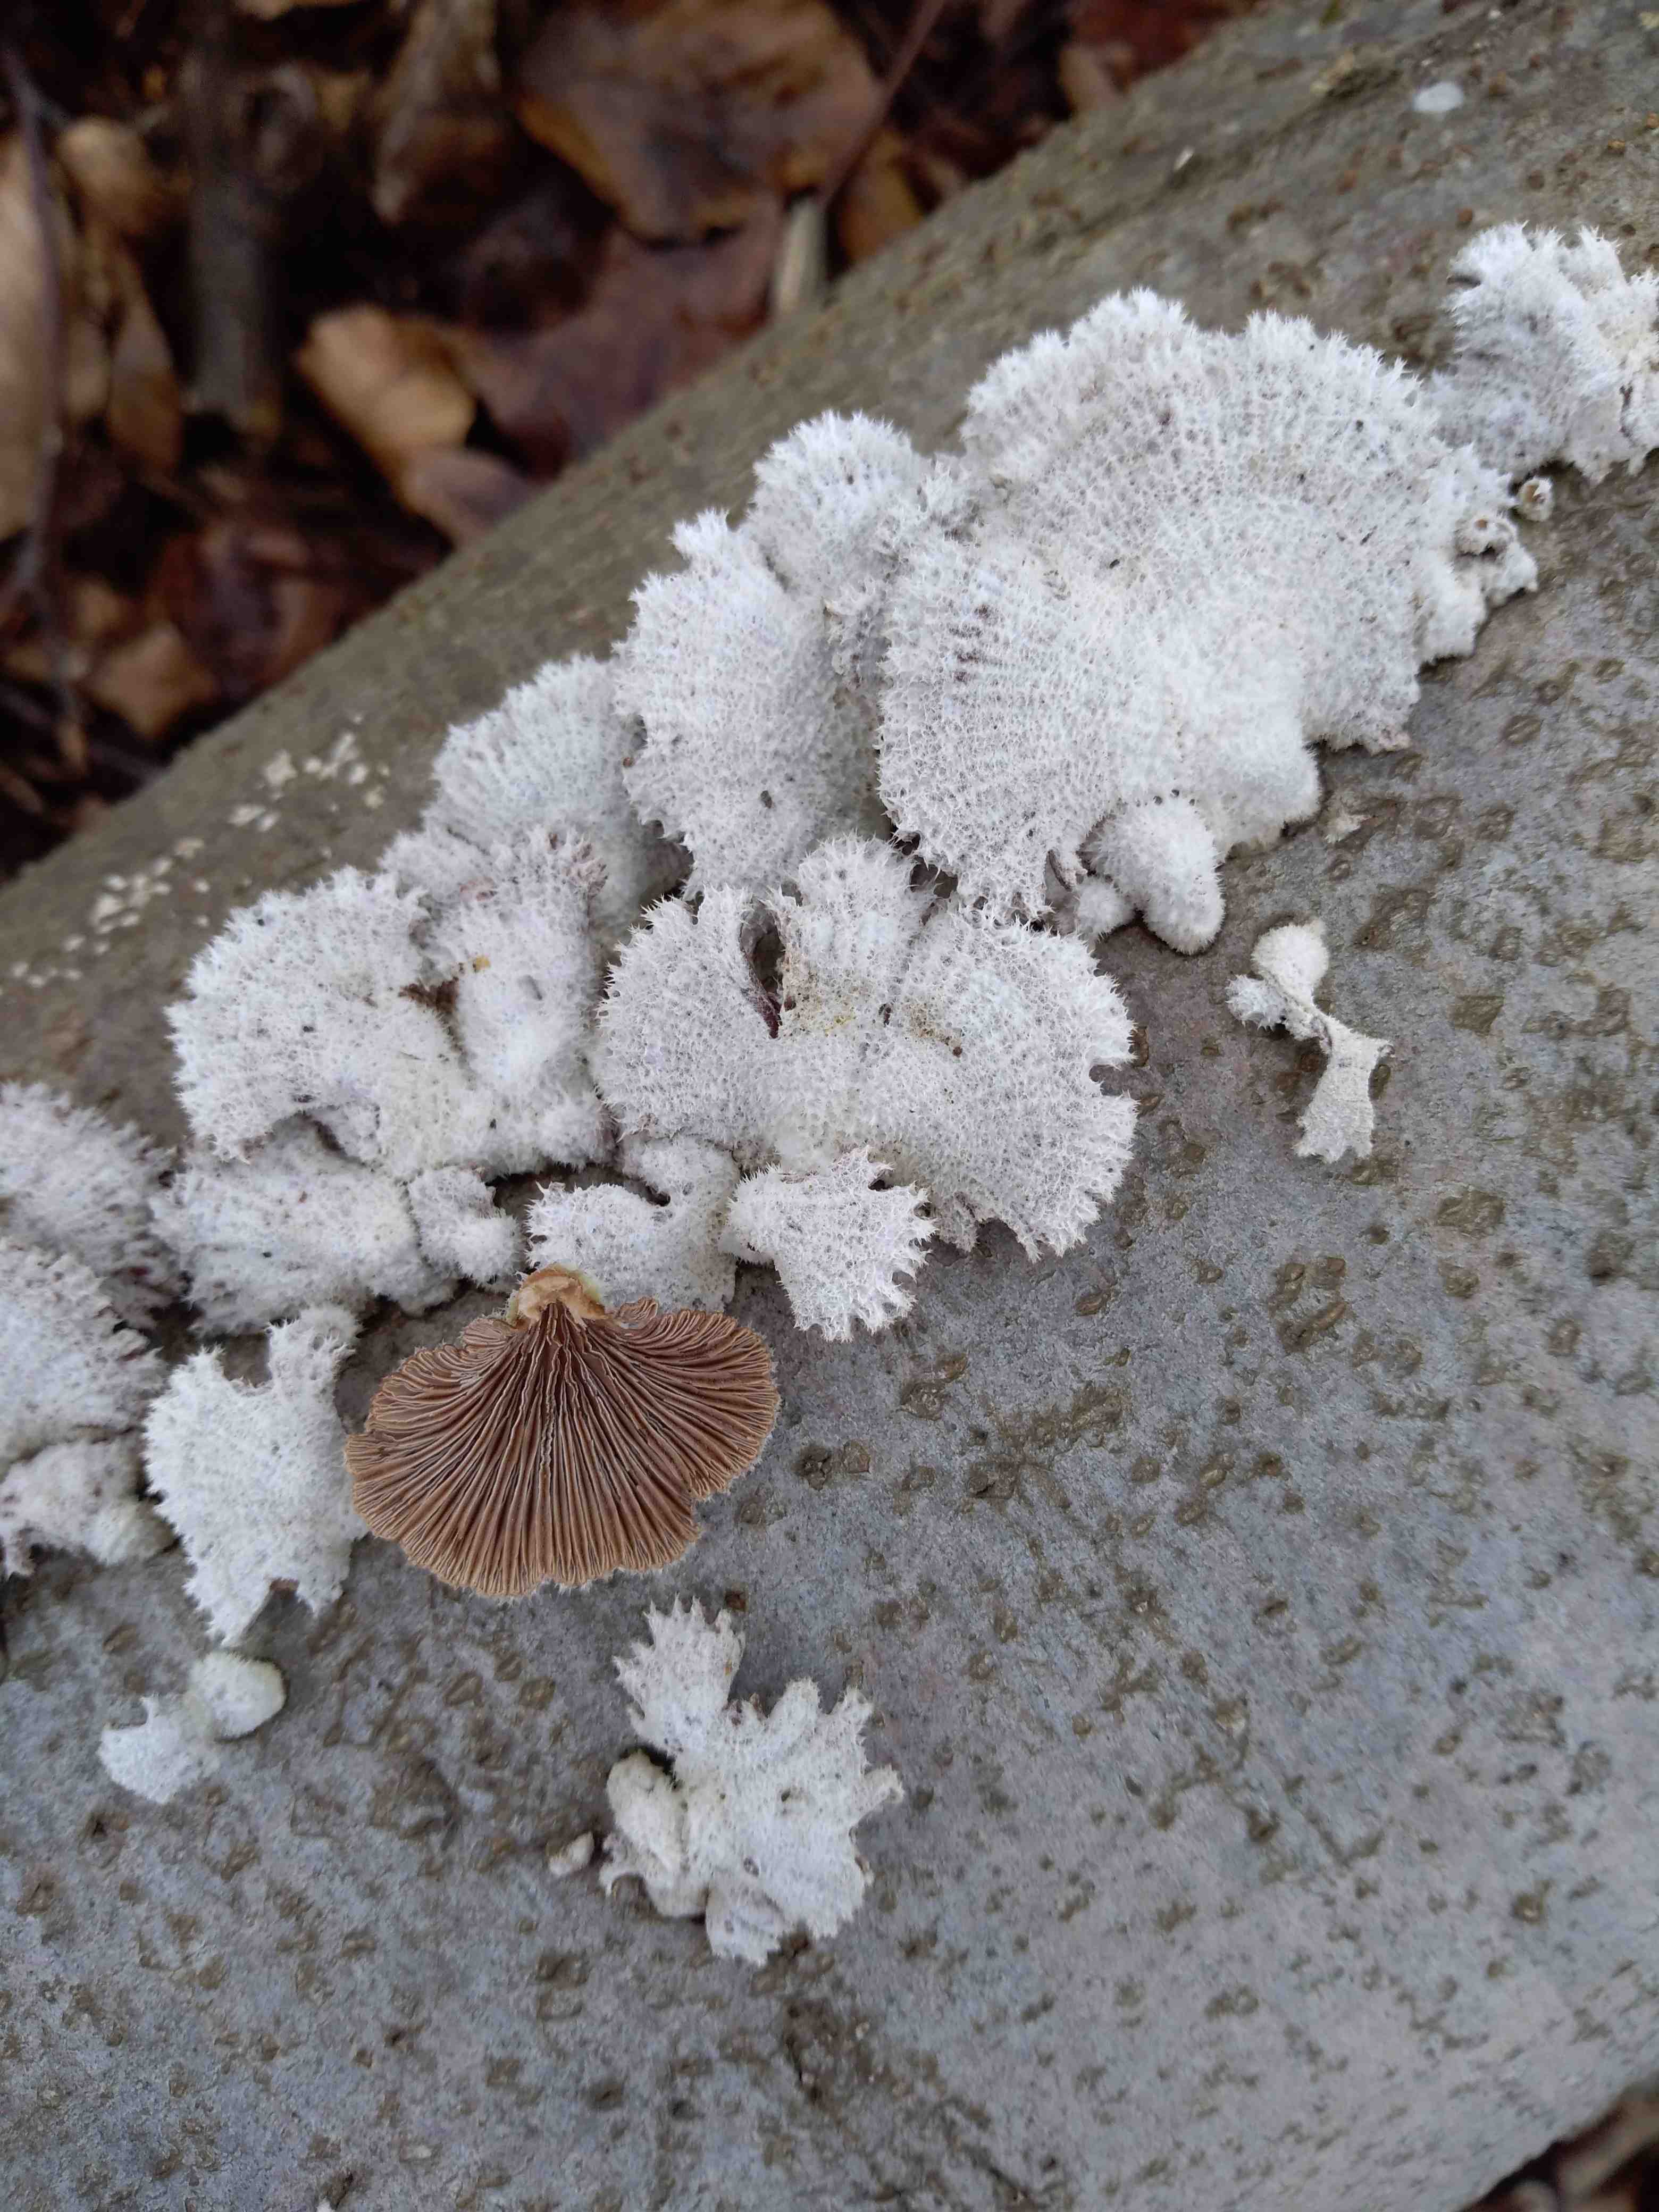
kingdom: Fungi
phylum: Basidiomycota
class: Agaricomycetes
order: Agaricales
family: Schizophyllaceae
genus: Schizophyllum
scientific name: Schizophyllum commune
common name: kløvblad
